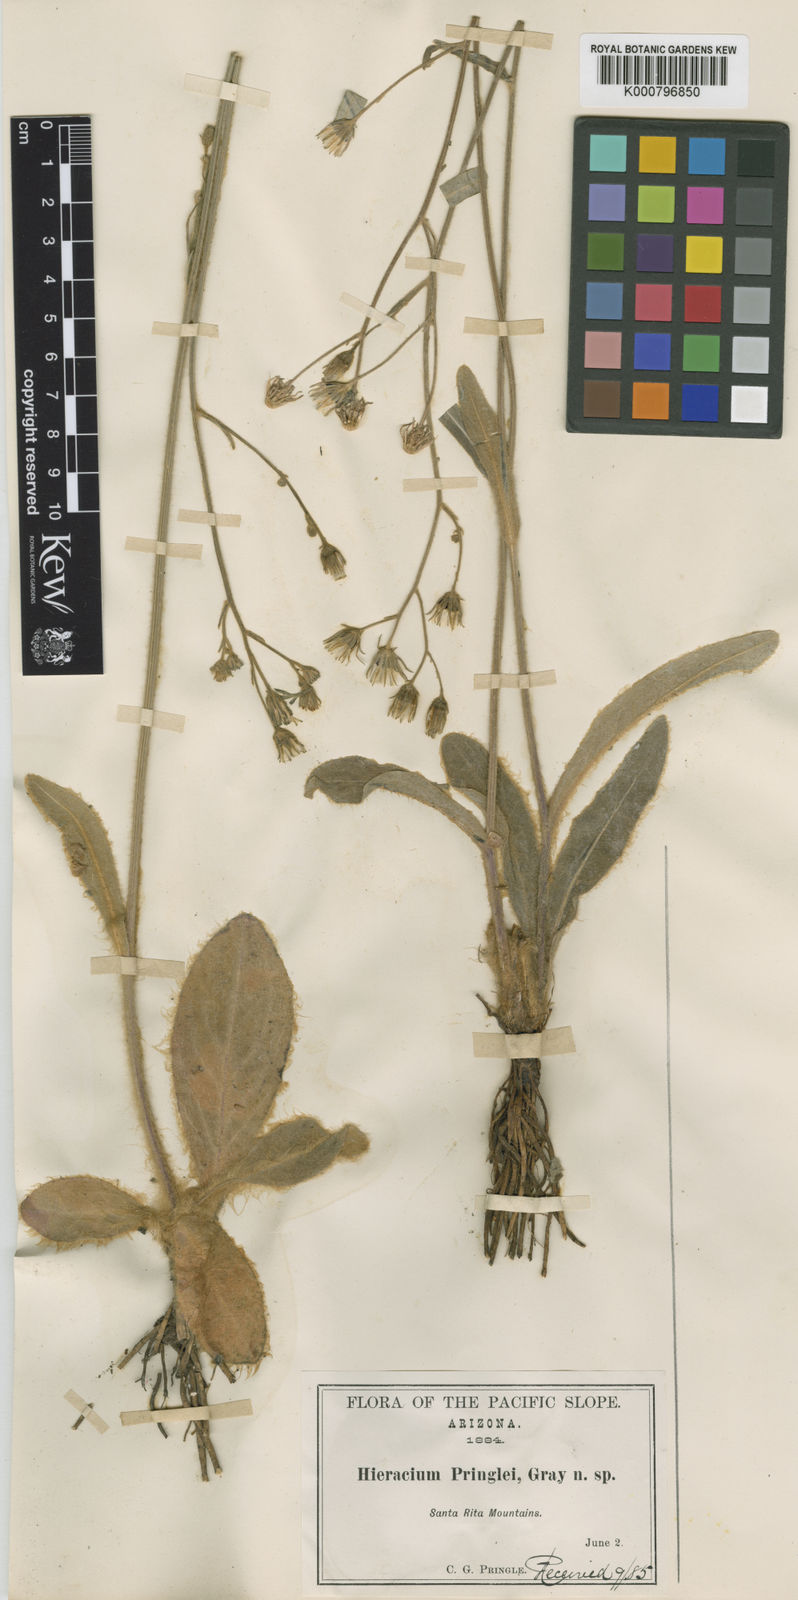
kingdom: Plantae
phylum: Tracheophyta
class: Magnoliopsida
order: Asterales
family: Asteraceae
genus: Hieracium
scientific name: Hieracium pringlei
